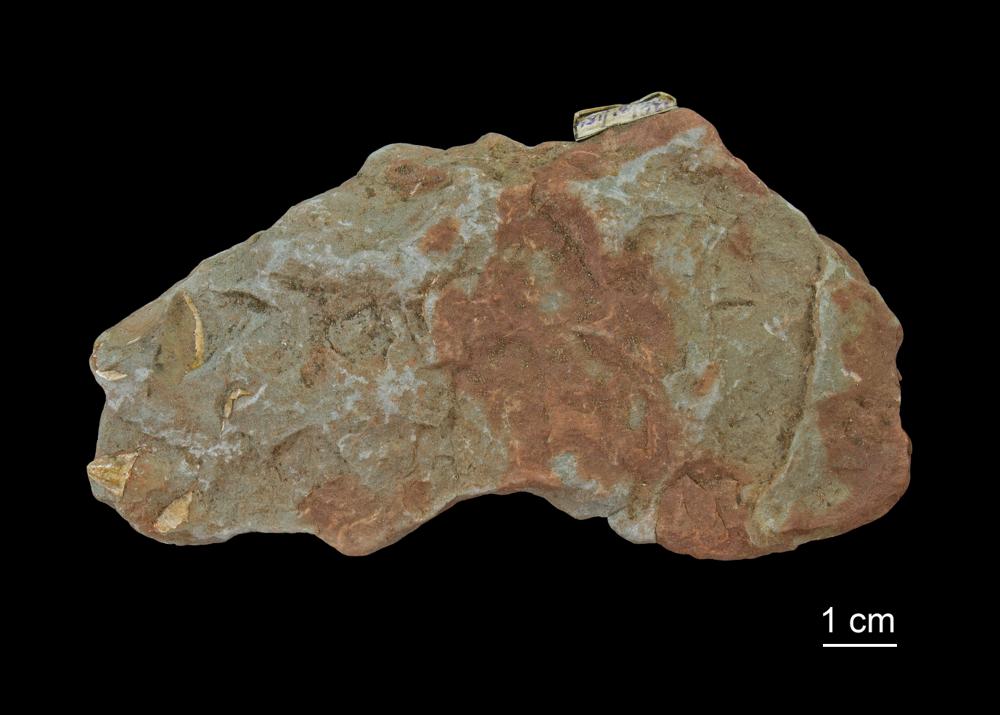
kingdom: Animalia
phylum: Brachiopoda
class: Lingulata
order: Lingulida
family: Pseudolingulidae
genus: Bicarinatina
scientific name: Bicarinatina Lingula bicarinata
